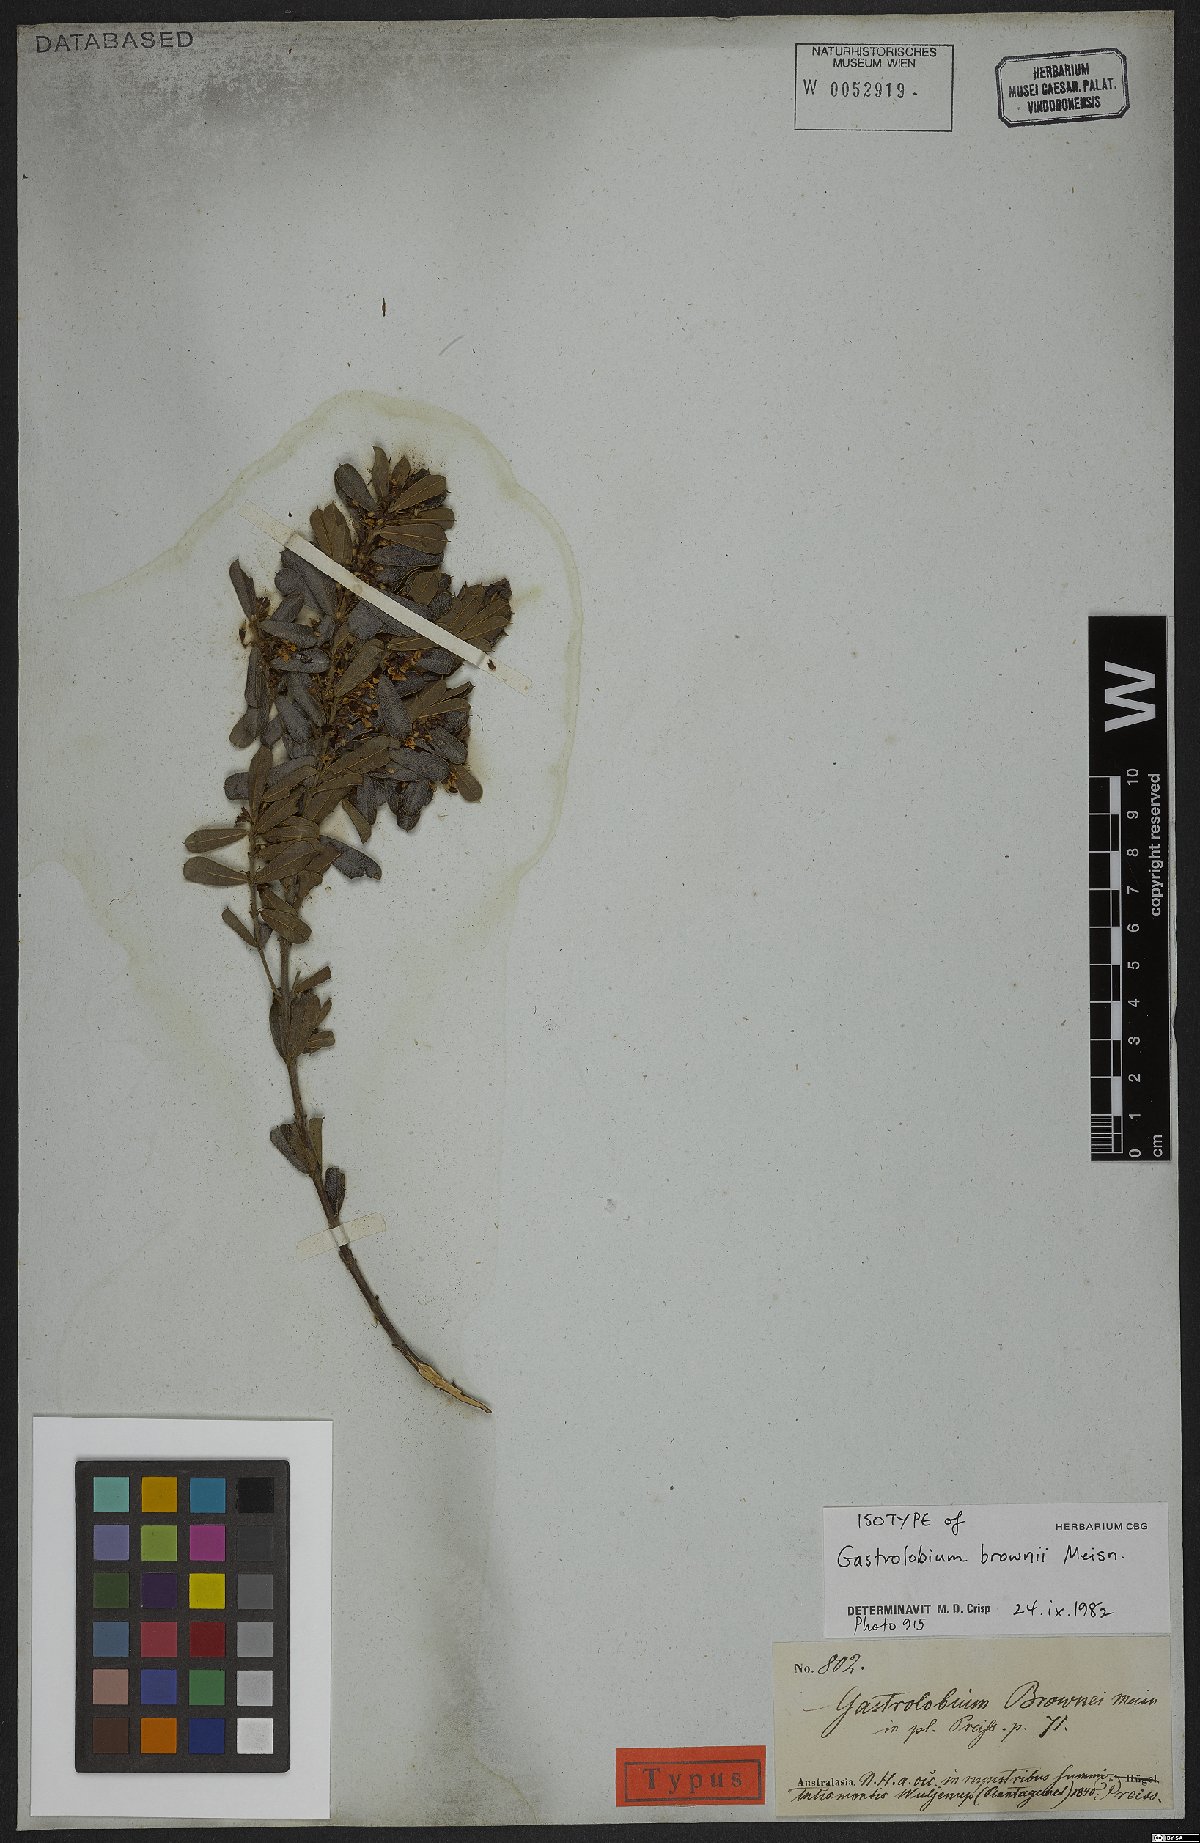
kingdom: Plantae
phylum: Tracheophyta
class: Magnoliopsida
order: Fabales
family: Fabaceae
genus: Gastrolobium
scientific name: Gastrolobium brownii
